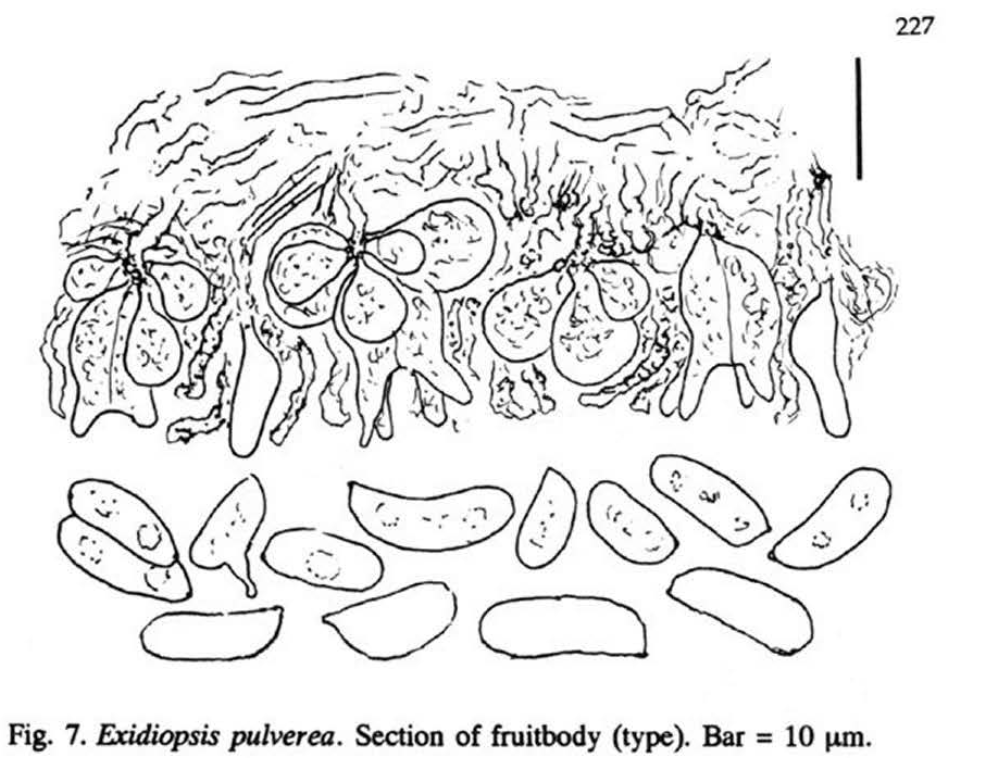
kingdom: Fungi
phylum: Basidiomycota
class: Agaricomycetes
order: Auriculariales
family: Auriculariaceae
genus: Exidiopsis
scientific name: Exidiopsis pulverea
